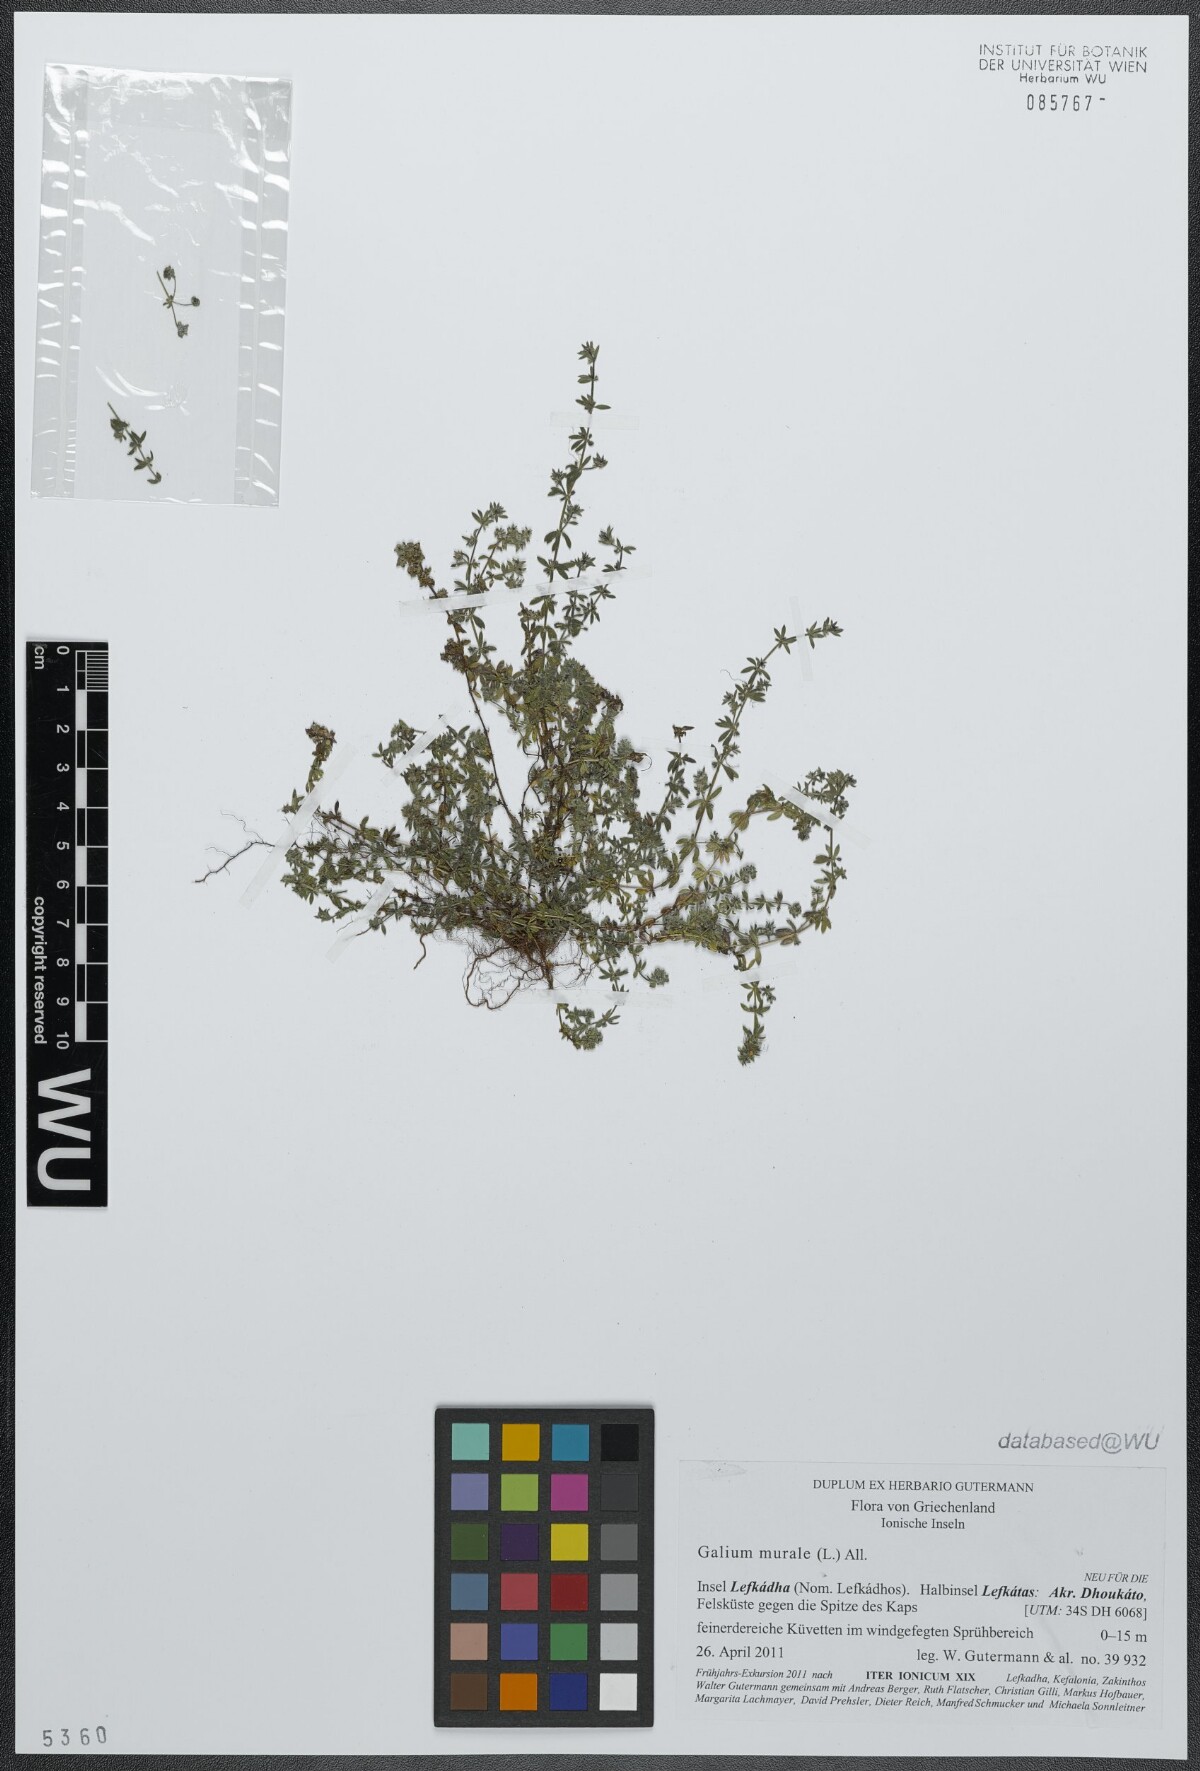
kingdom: Plantae
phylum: Tracheophyta
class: Magnoliopsida
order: Gentianales
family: Rubiaceae
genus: Galium
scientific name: Galium murale
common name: Yellow wall bedstraw
